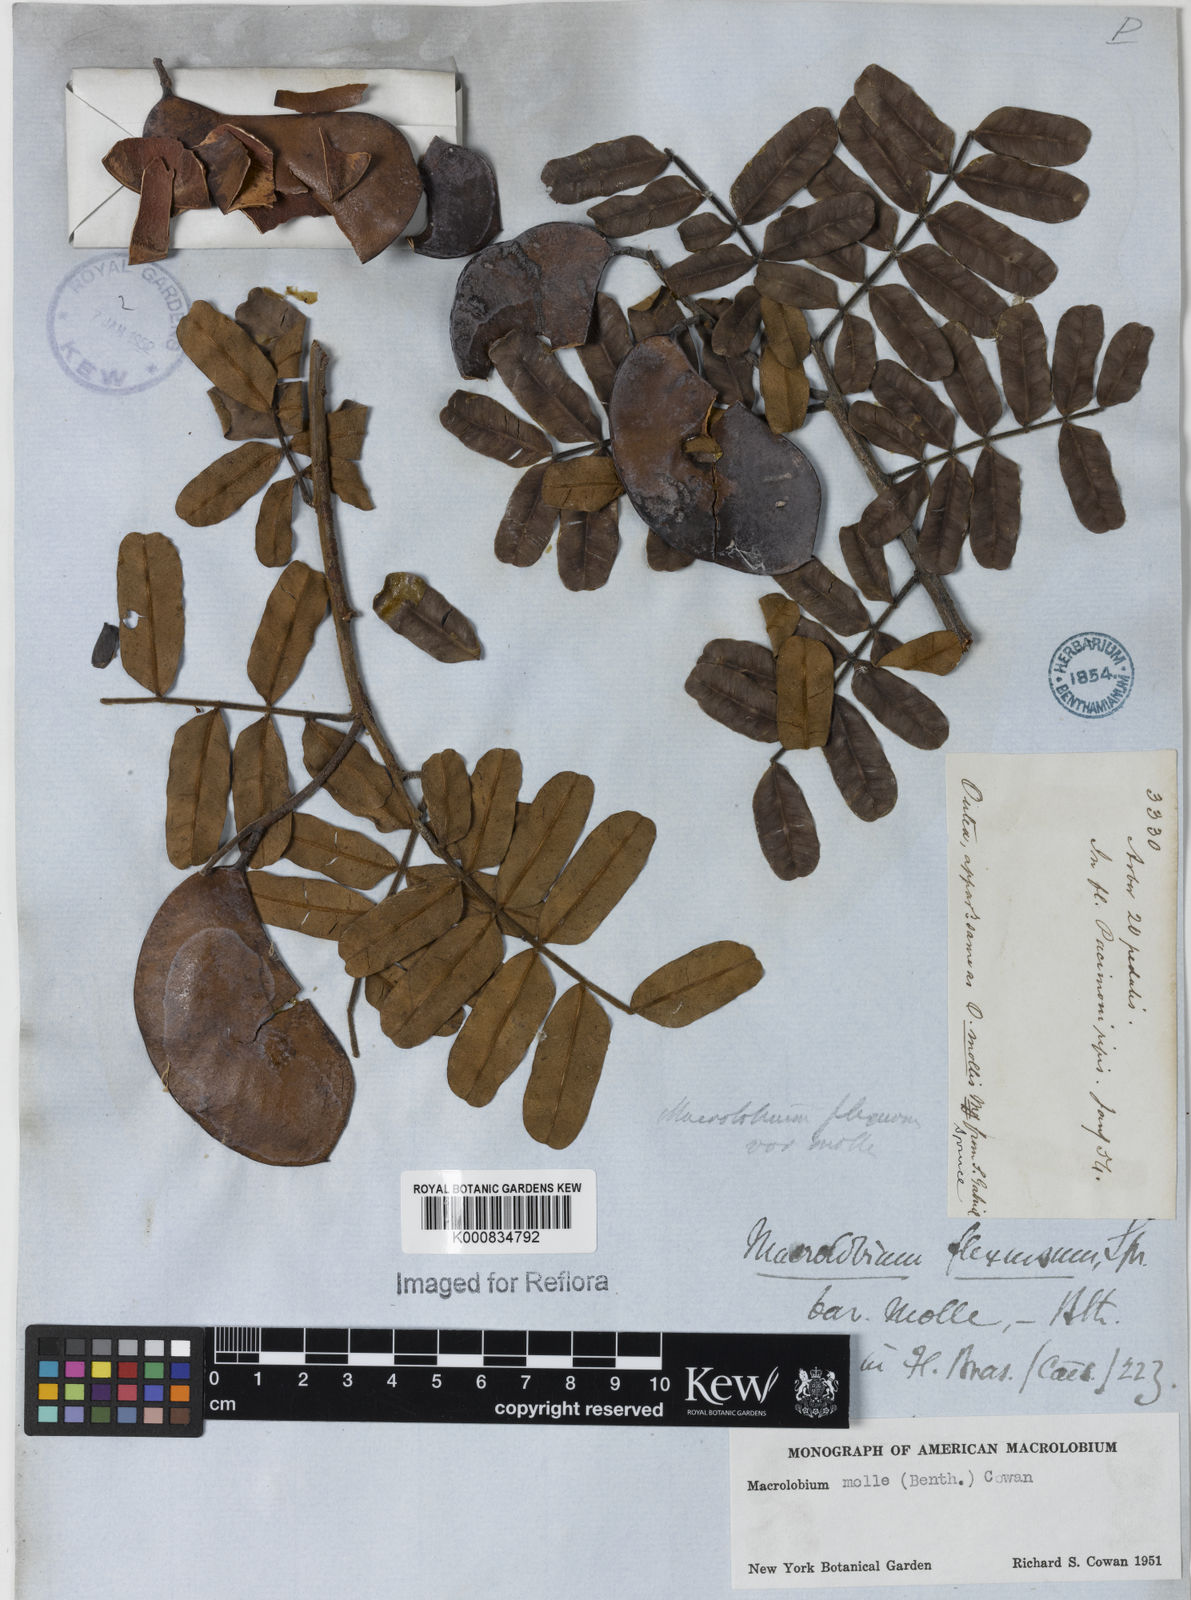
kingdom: Plantae
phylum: Tracheophyta
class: Magnoliopsida
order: Fabales
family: Fabaceae
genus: Macrolobium
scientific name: Macrolobium
